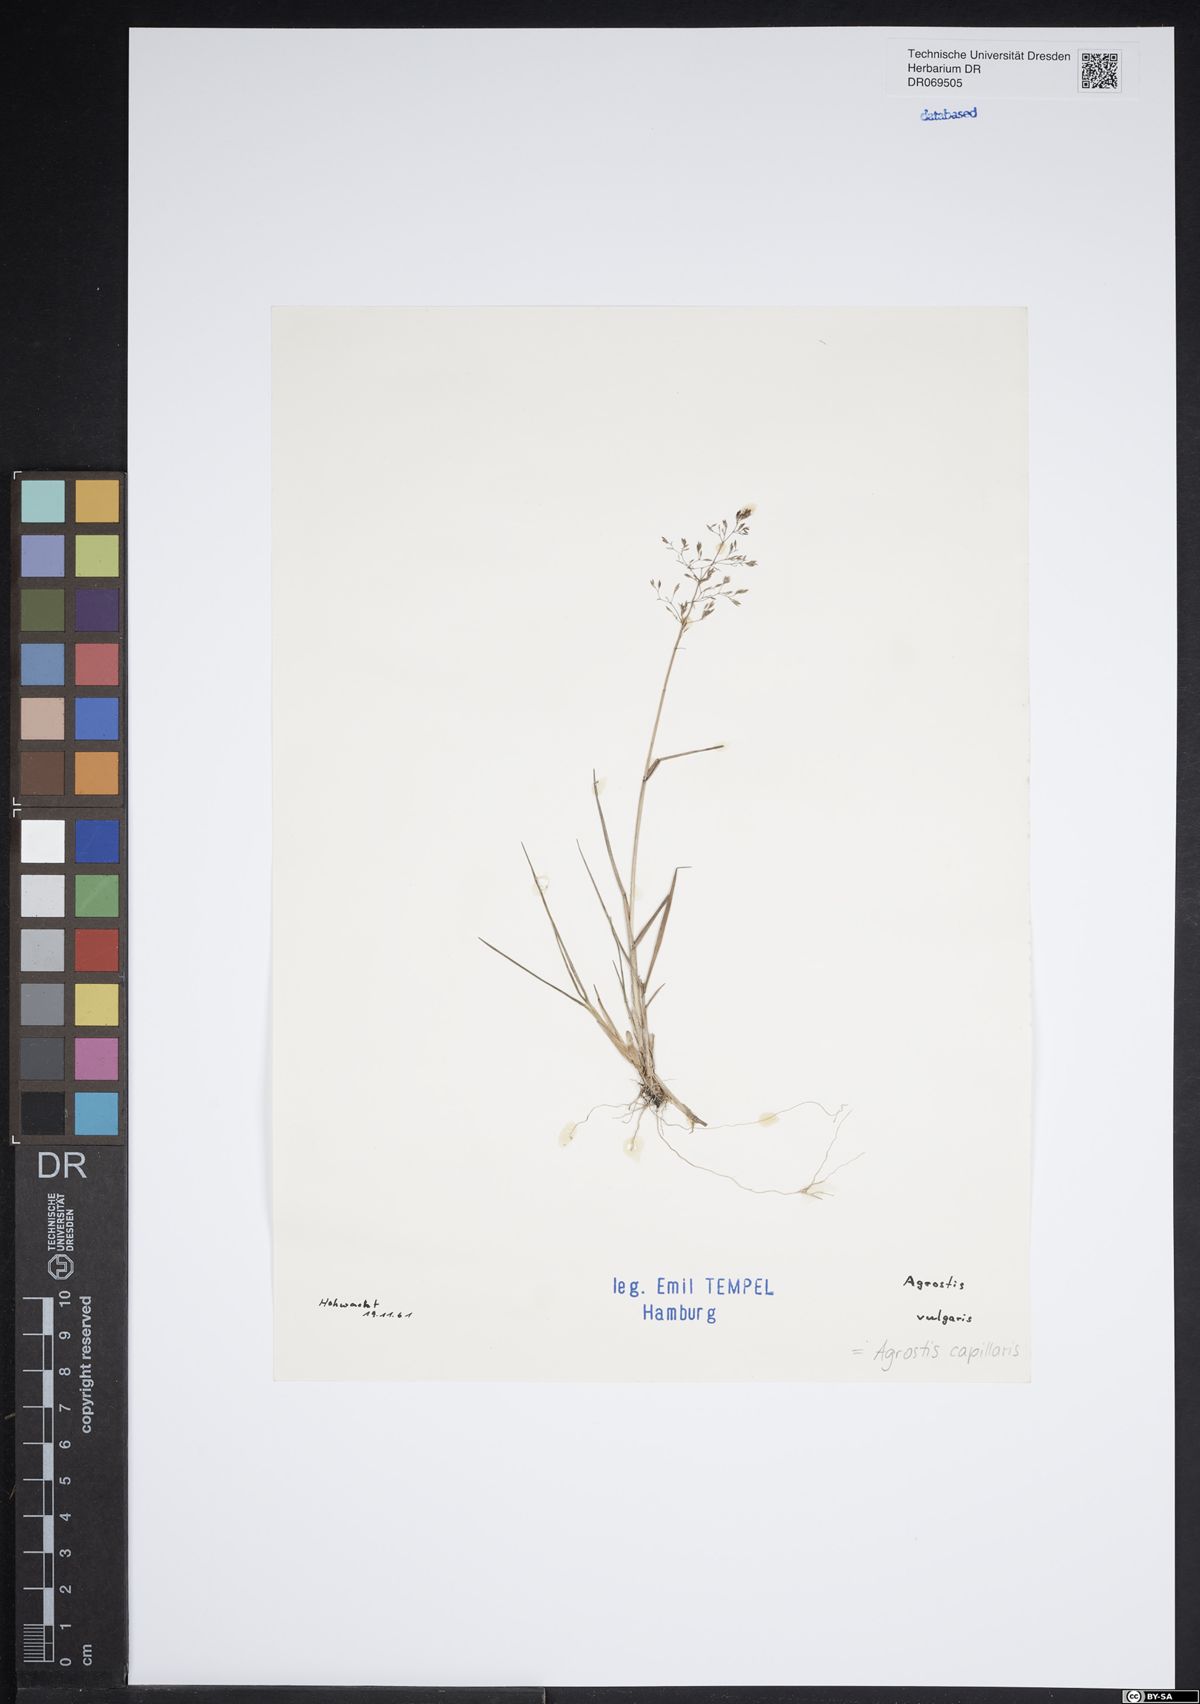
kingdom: Plantae
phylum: Tracheophyta
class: Liliopsida
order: Poales
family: Poaceae
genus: Agrostis
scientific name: Agrostis capillaris
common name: Colonial bentgrass
